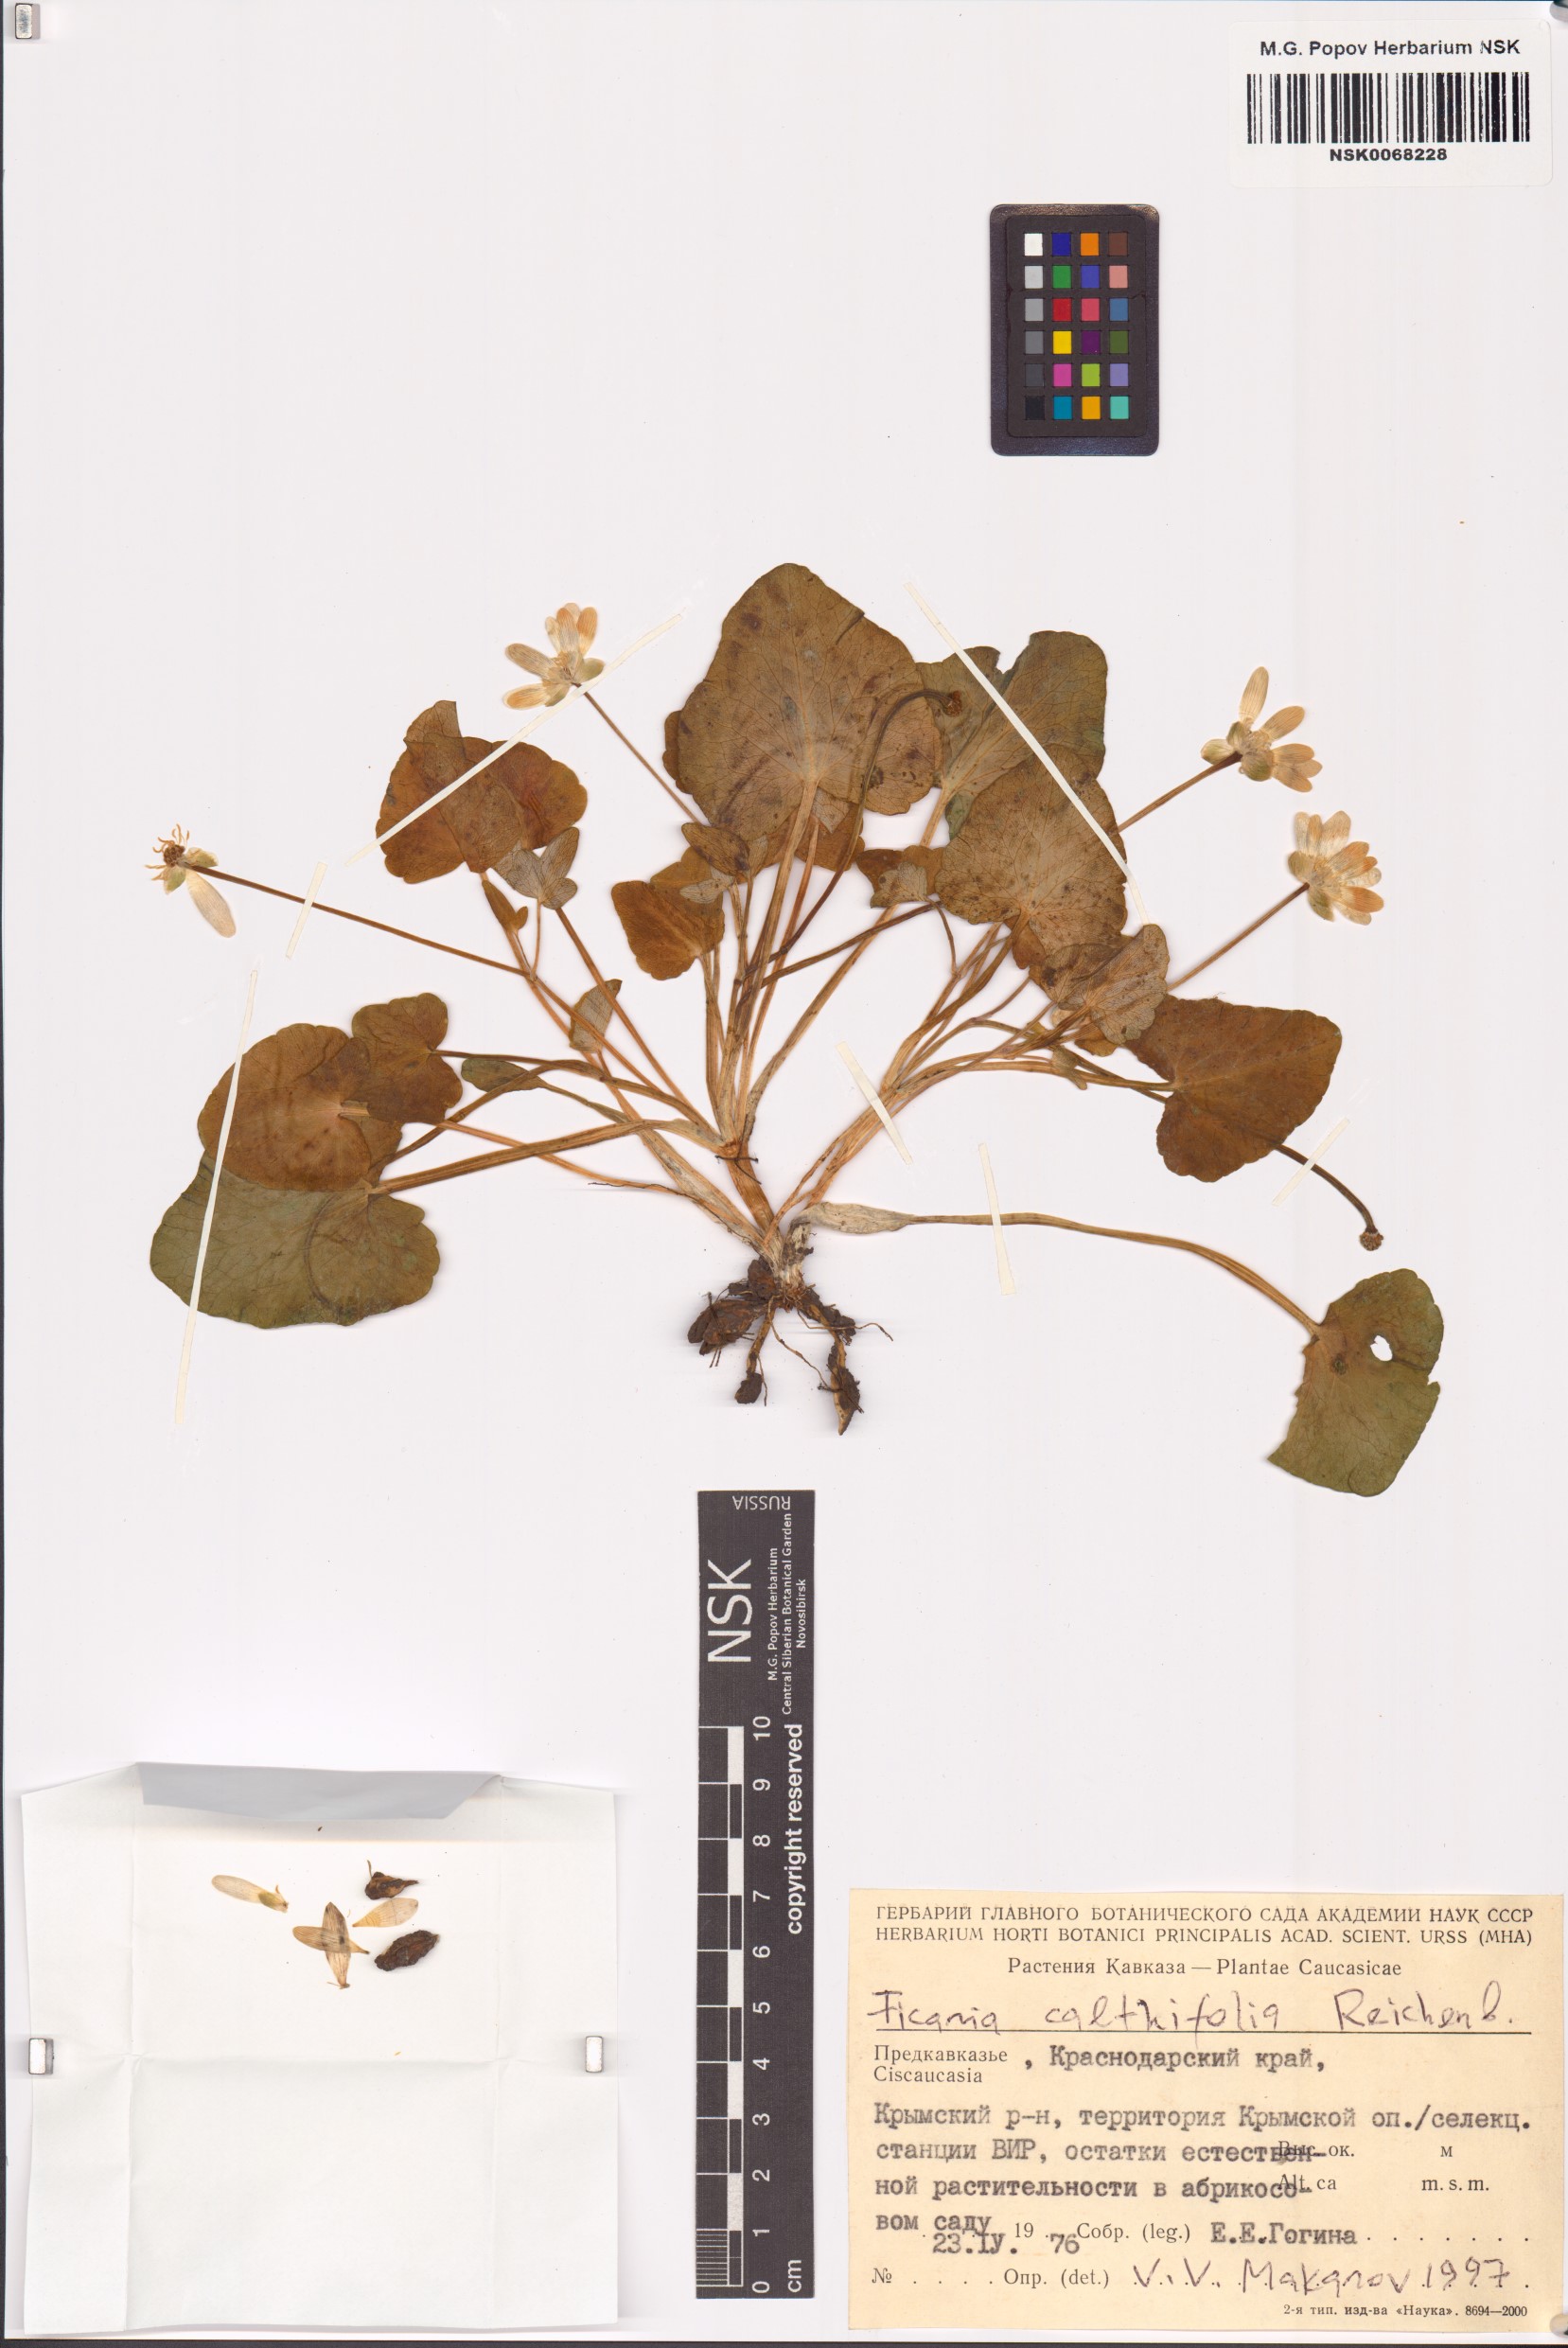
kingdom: Plantae
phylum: Tracheophyta
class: Magnoliopsida
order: Ranunculales
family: Ranunculaceae
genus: Ficaria
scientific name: Ficaria calthifolia
